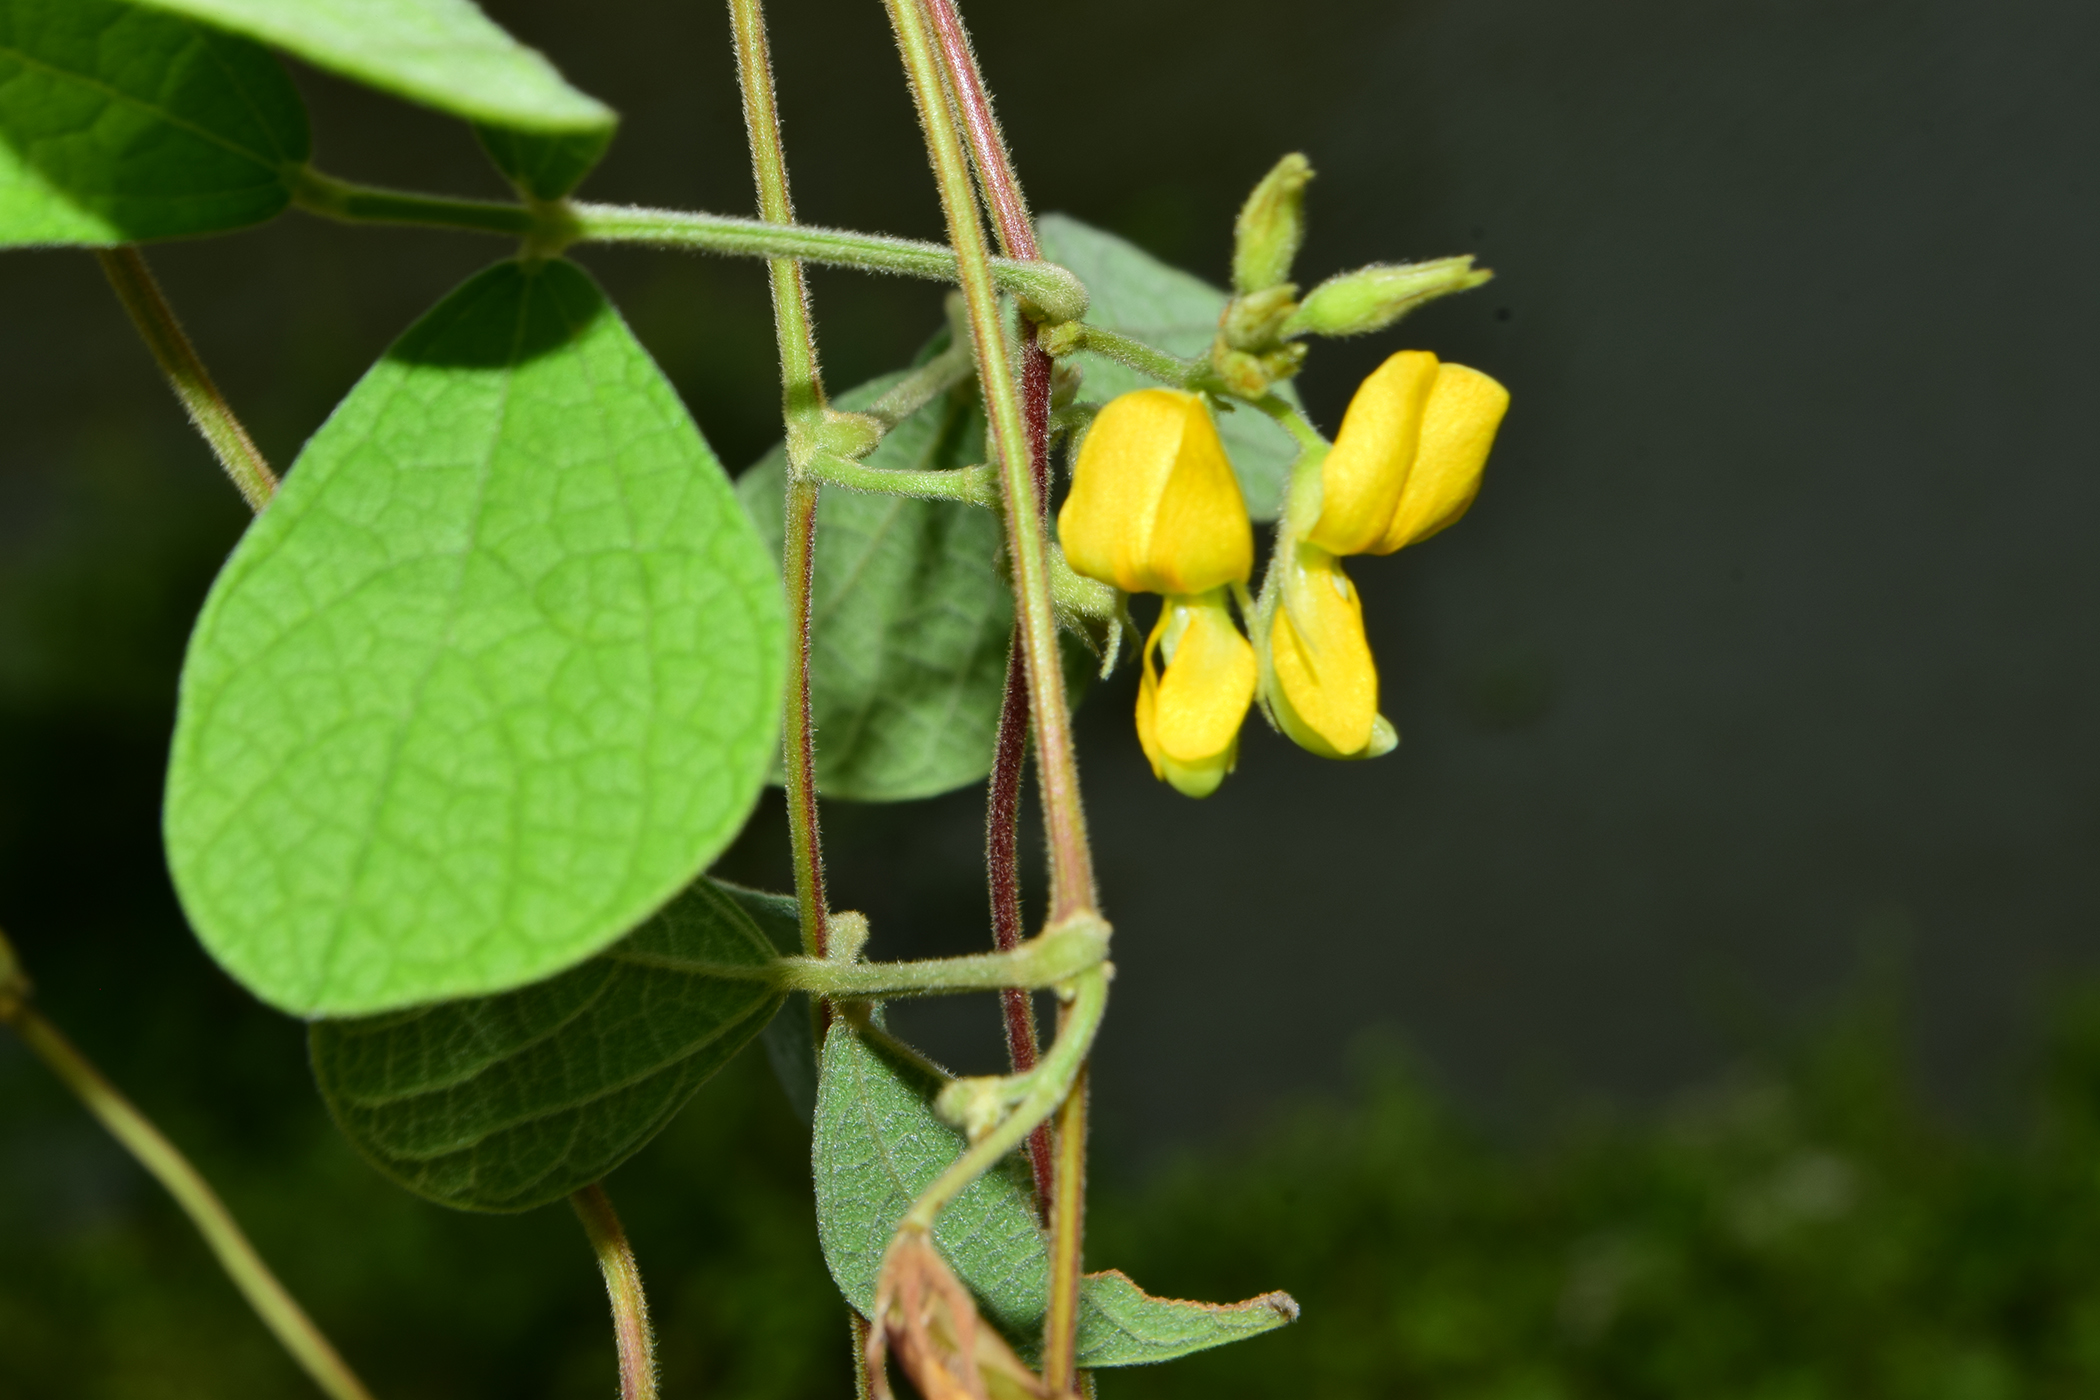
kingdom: Plantae
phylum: Tracheophyta
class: Magnoliopsida
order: Fabales
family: Fabaceae
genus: Cajanus
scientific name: Cajanus scarabaeoides
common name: Showy pigeonpea
